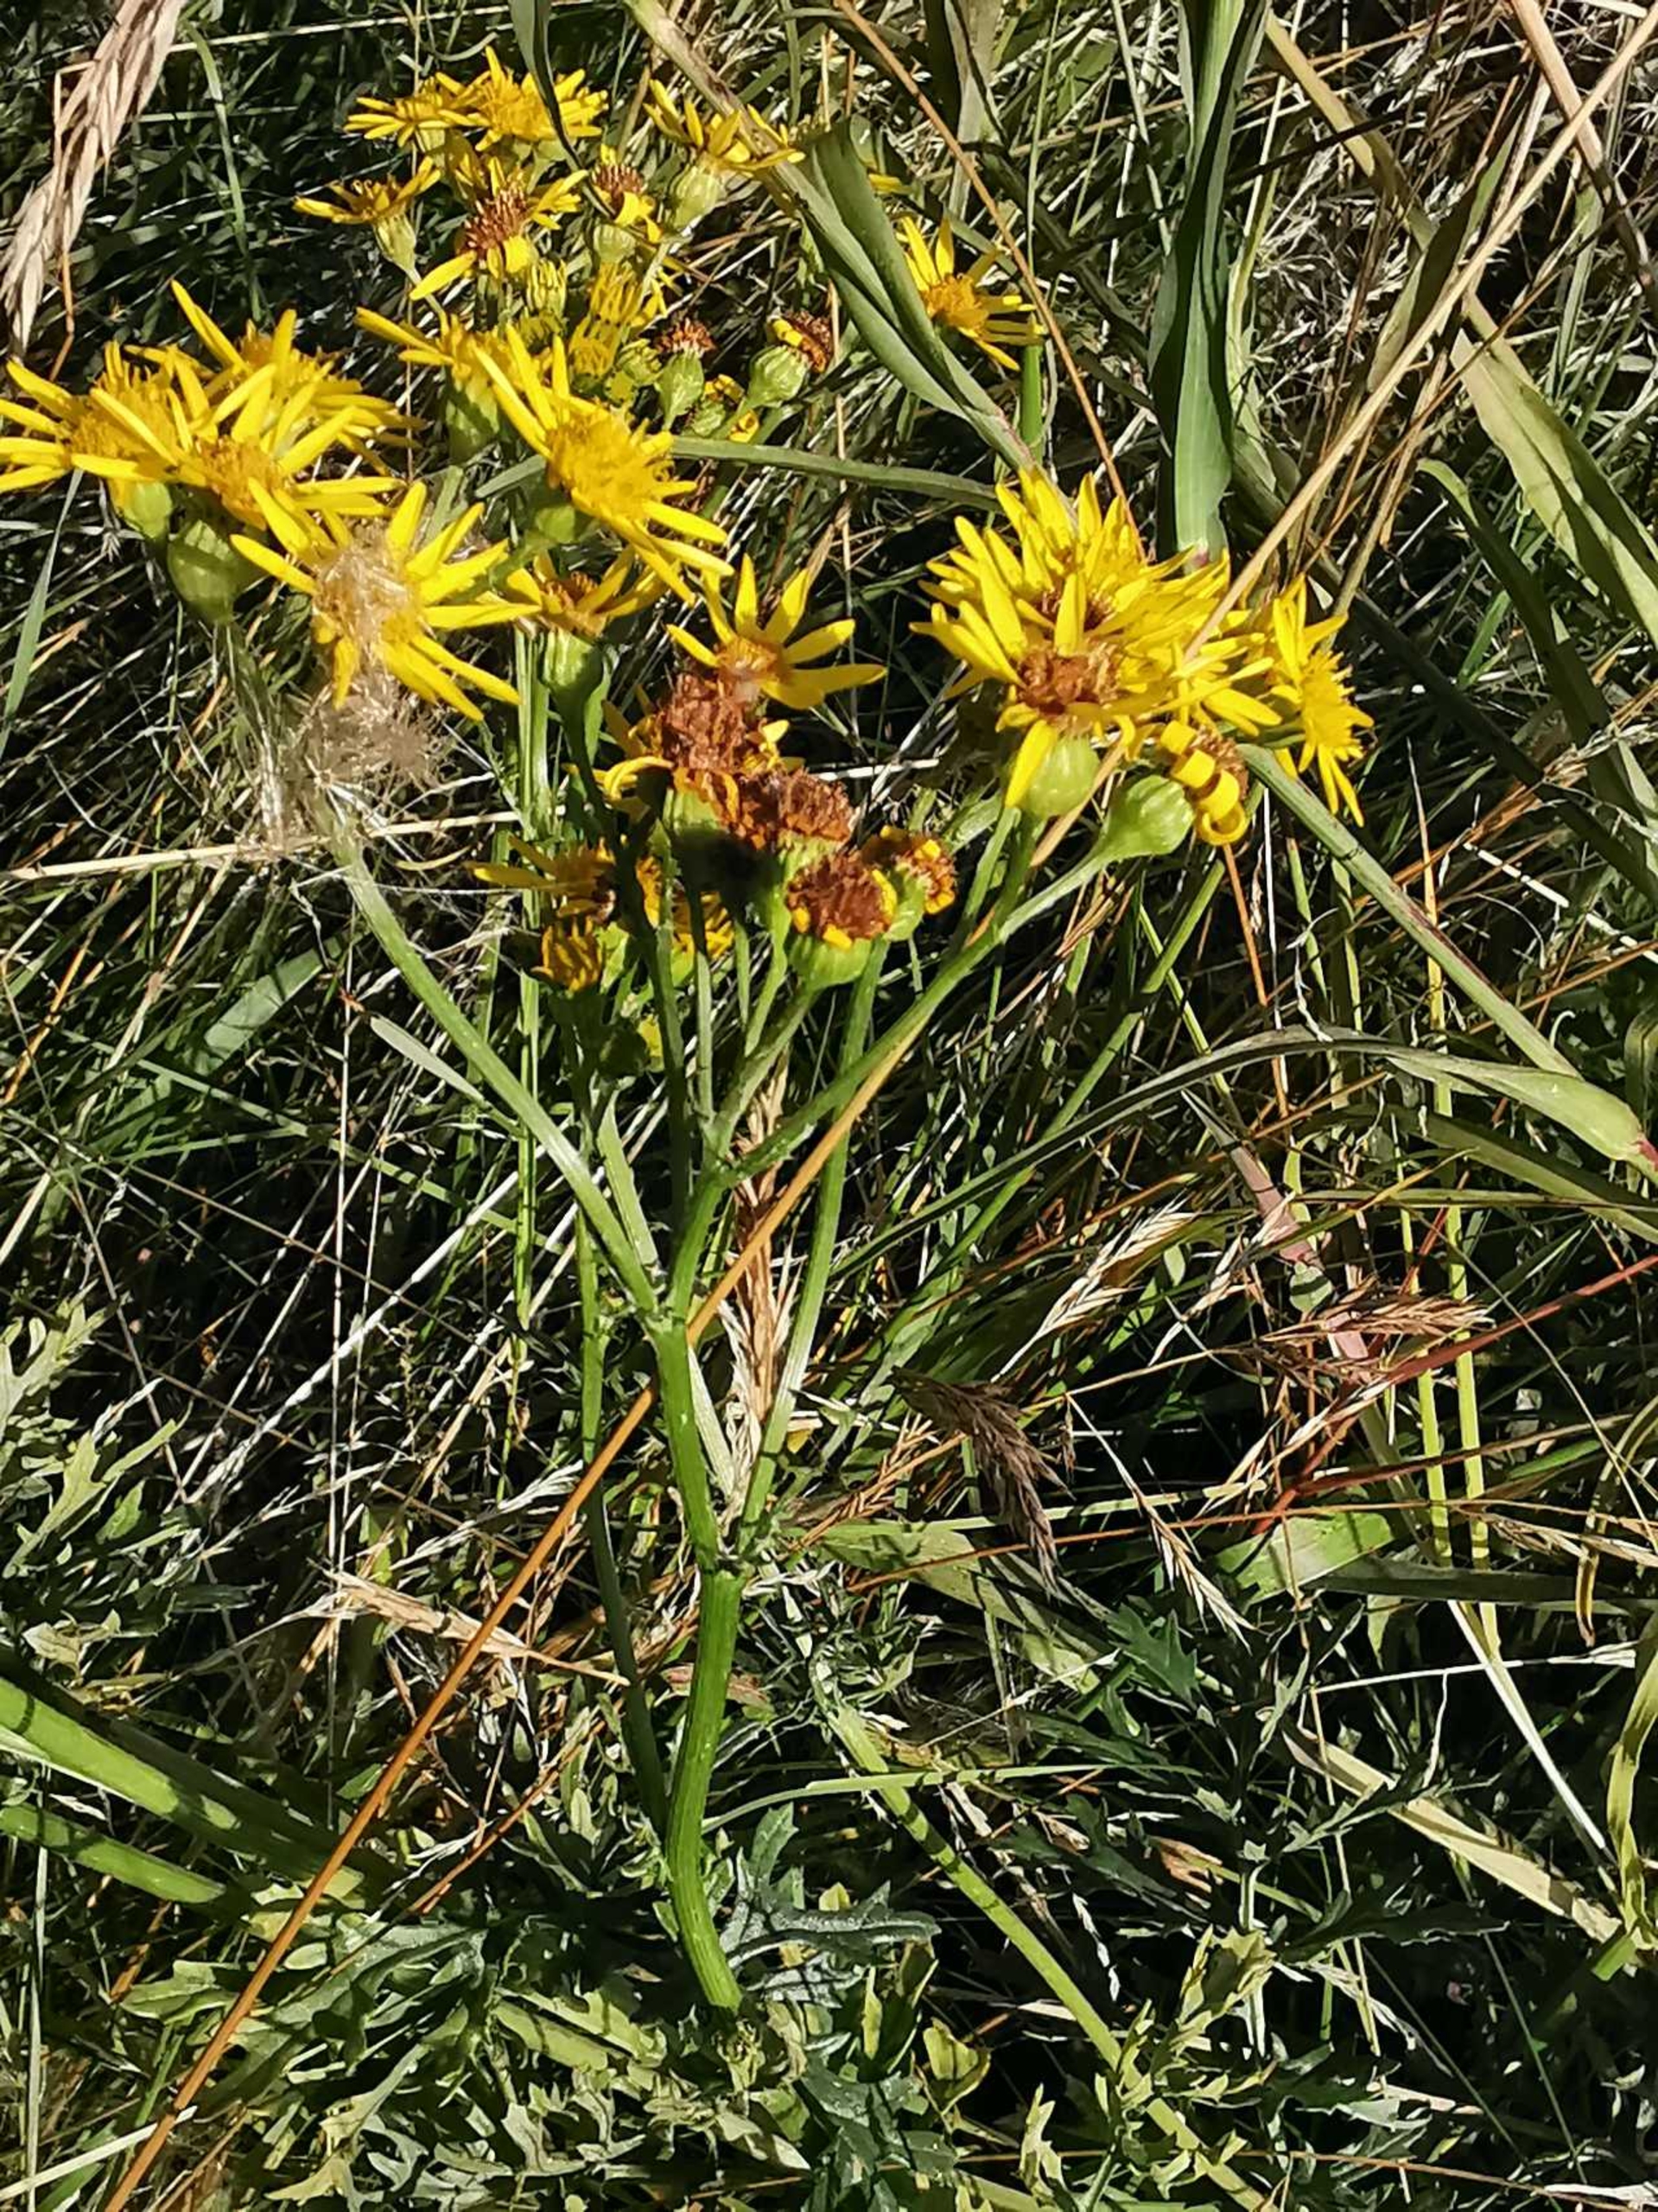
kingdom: Plantae
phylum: Tracheophyta
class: Magnoliopsida
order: Asterales
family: Asteraceae
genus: Jacobaea
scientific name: Jacobaea vulgaris
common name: Eng-brandbæger
